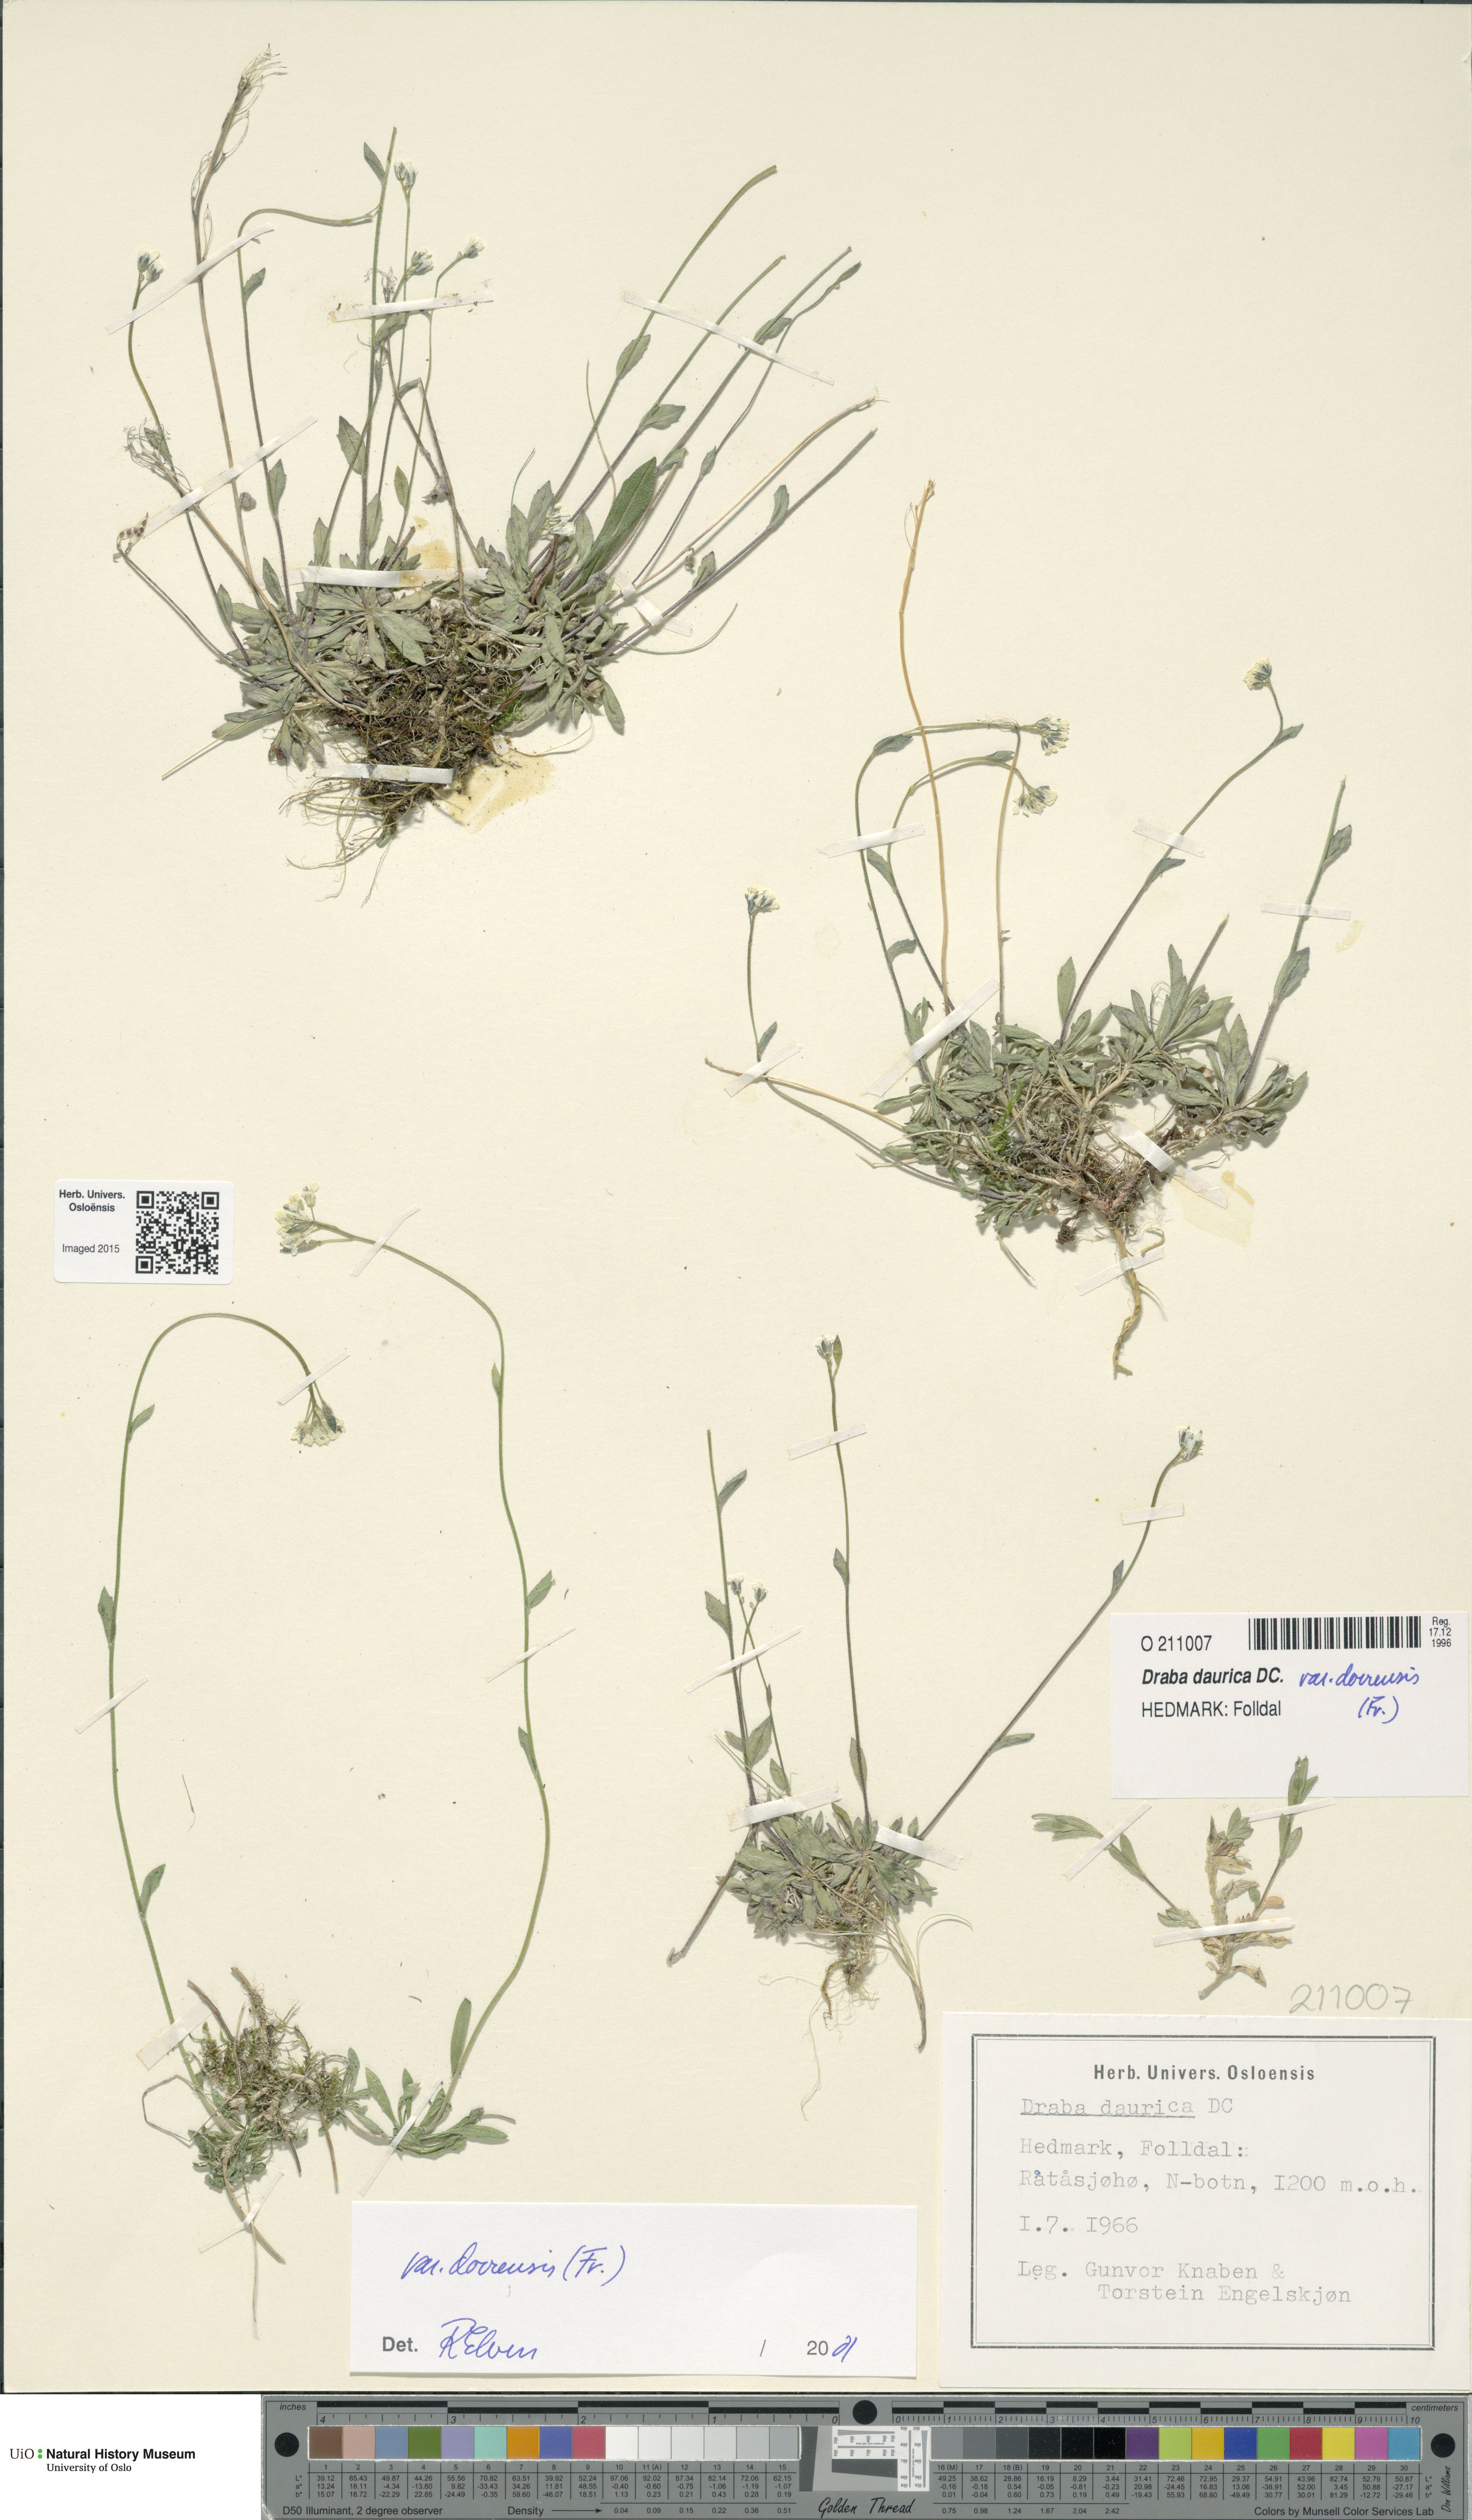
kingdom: Plantae
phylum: Tracheophyta
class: Magnoliopsida
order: Brassicales
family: Brassicaceae
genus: Draba
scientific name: Draba glabella
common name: Glaucous draba
